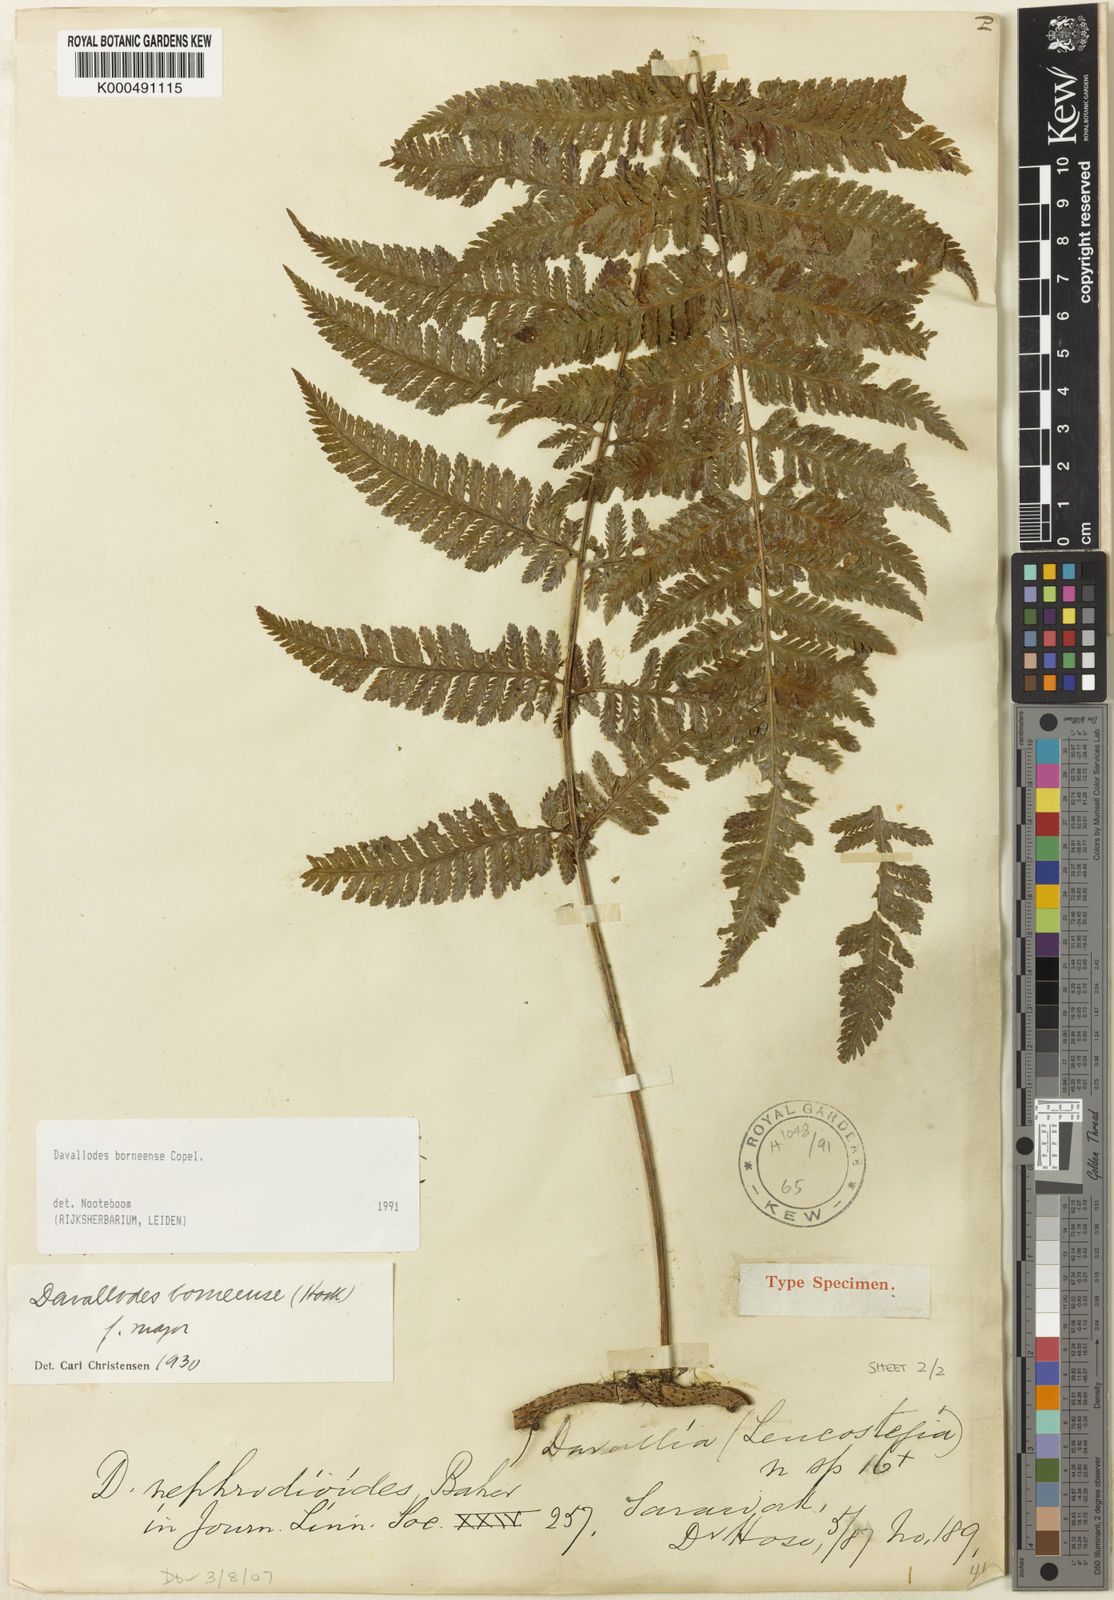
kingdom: Plantae
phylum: Tracheophyta
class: Polypodiopsida
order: Polypodiales
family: Davalliaceae
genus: Davallodes
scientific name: Davallodes borneensis
